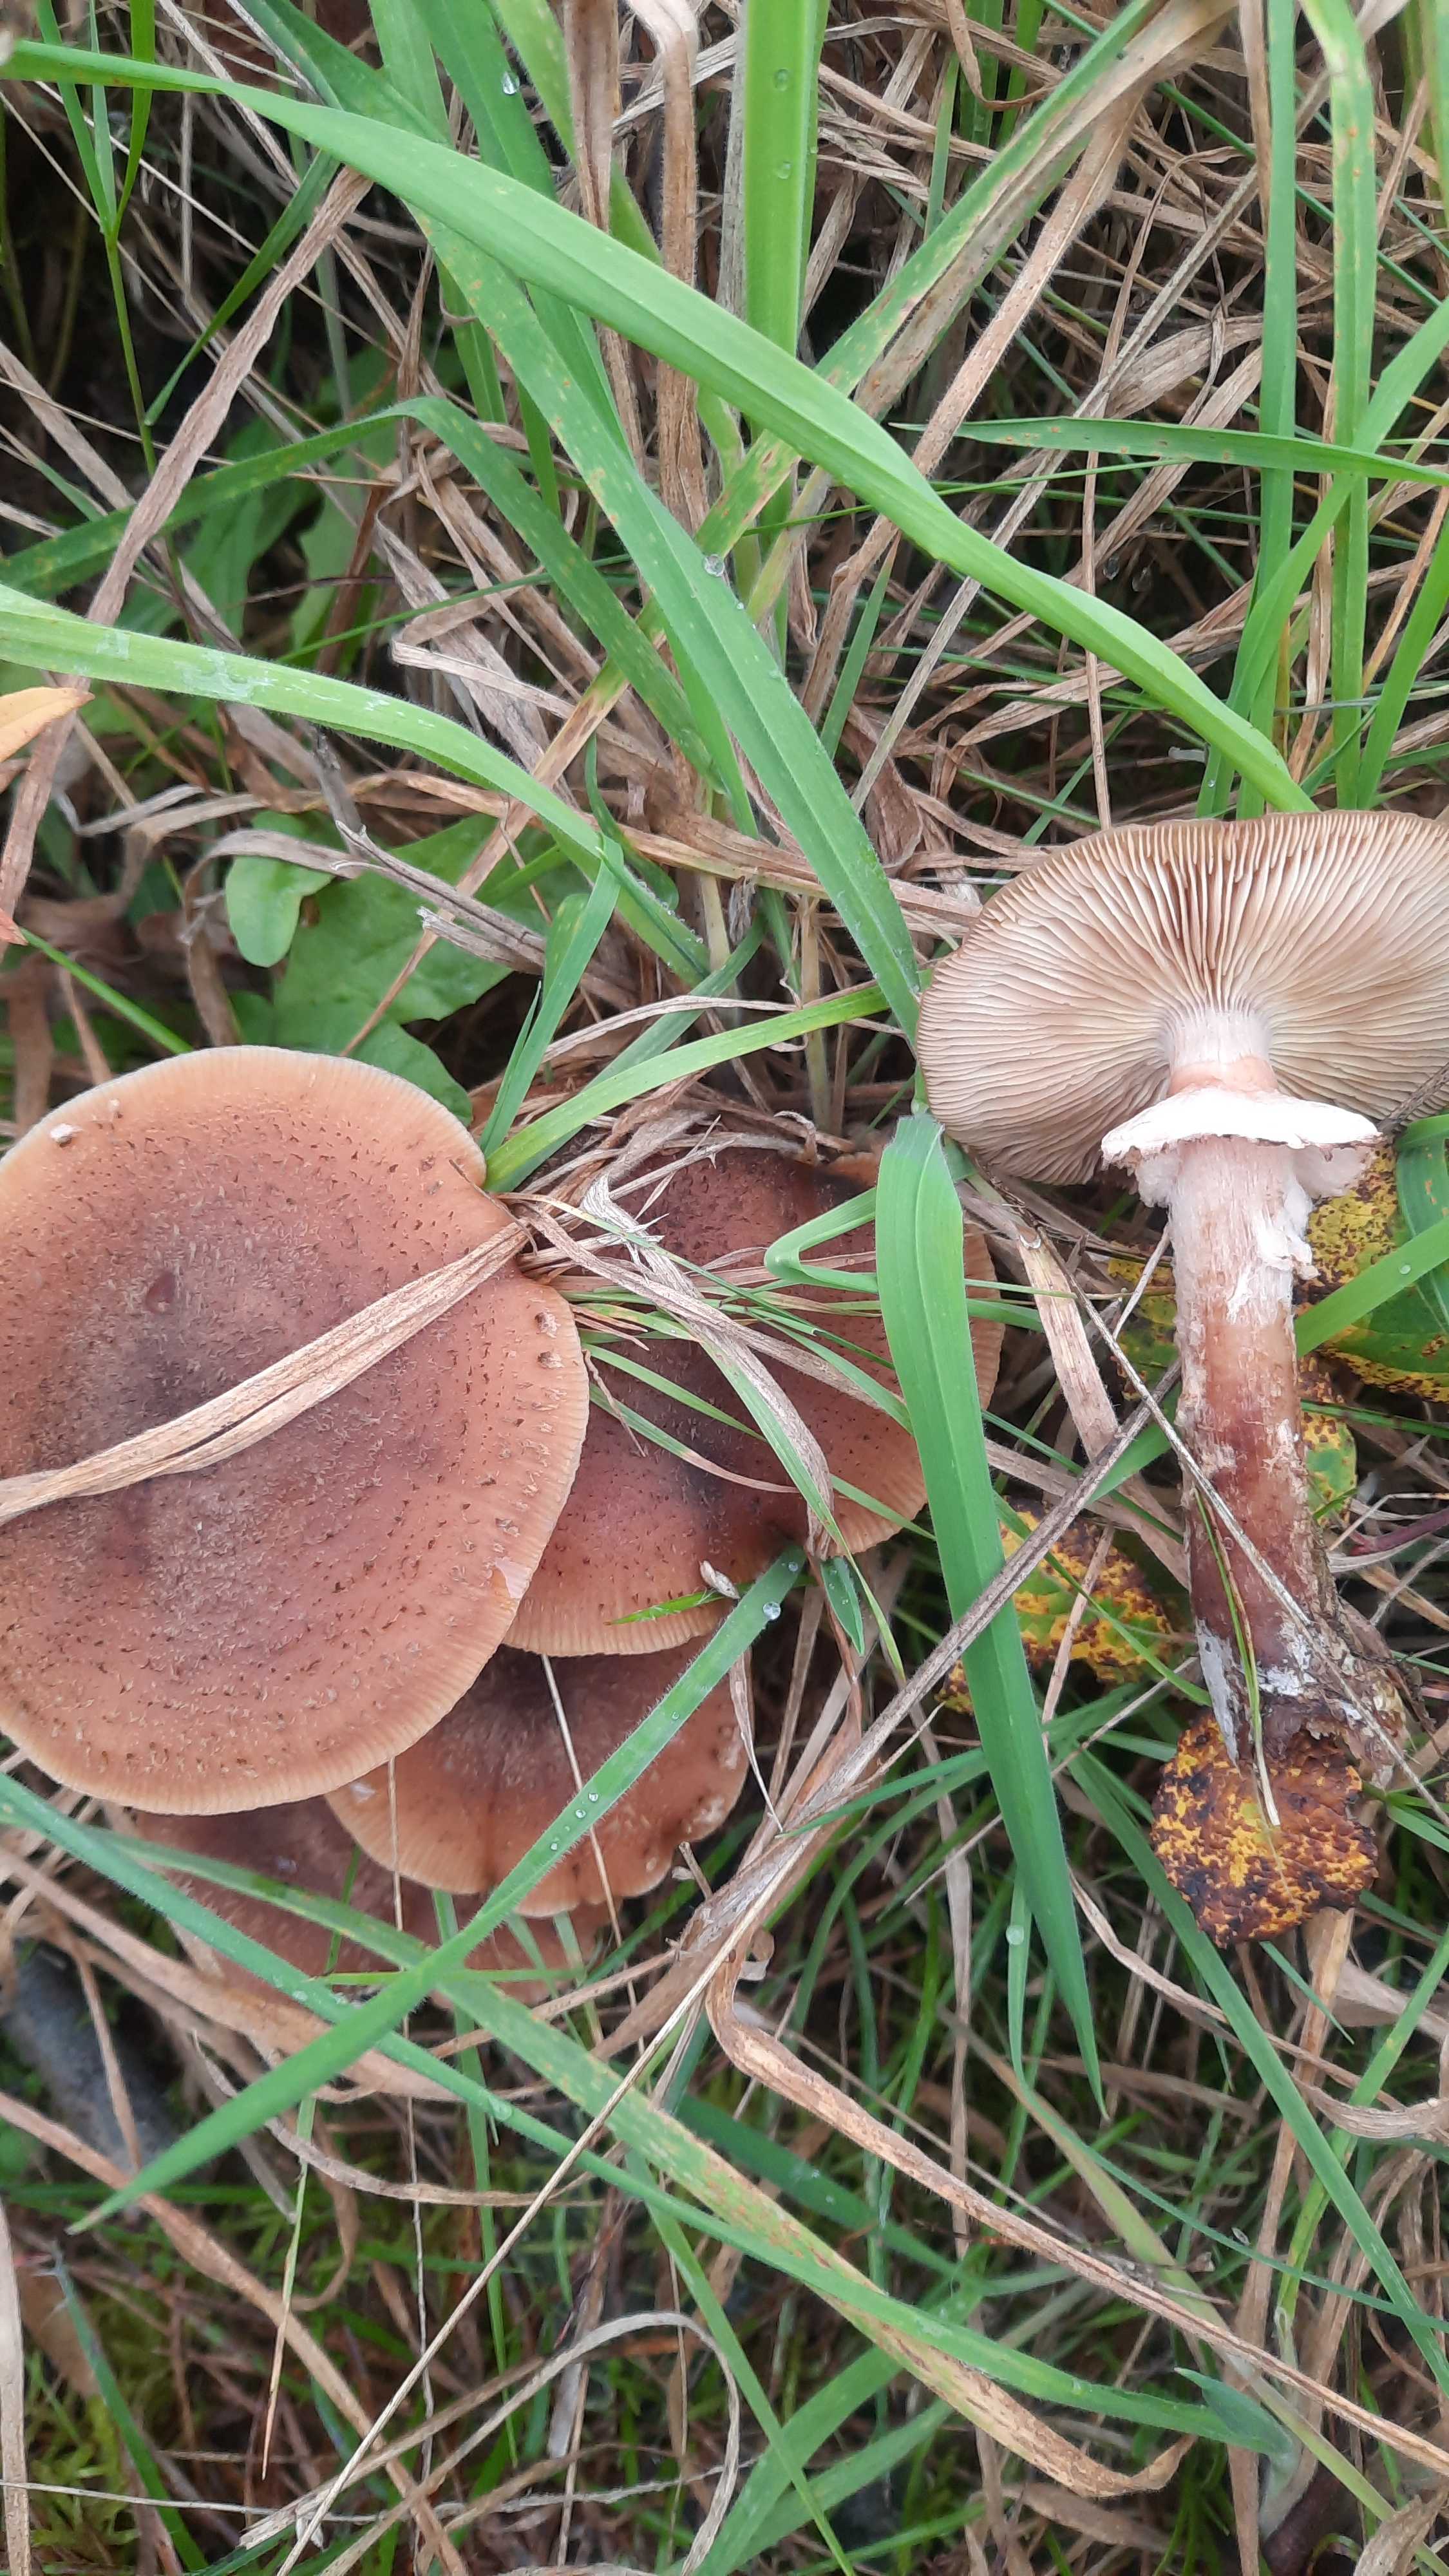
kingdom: Fungi
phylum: Basidiomycota
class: Agaricomycetes
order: Agaricales
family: Physalacriaceae
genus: Armillaria
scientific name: Armillaria ostoyae
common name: mørk honningsvamp
